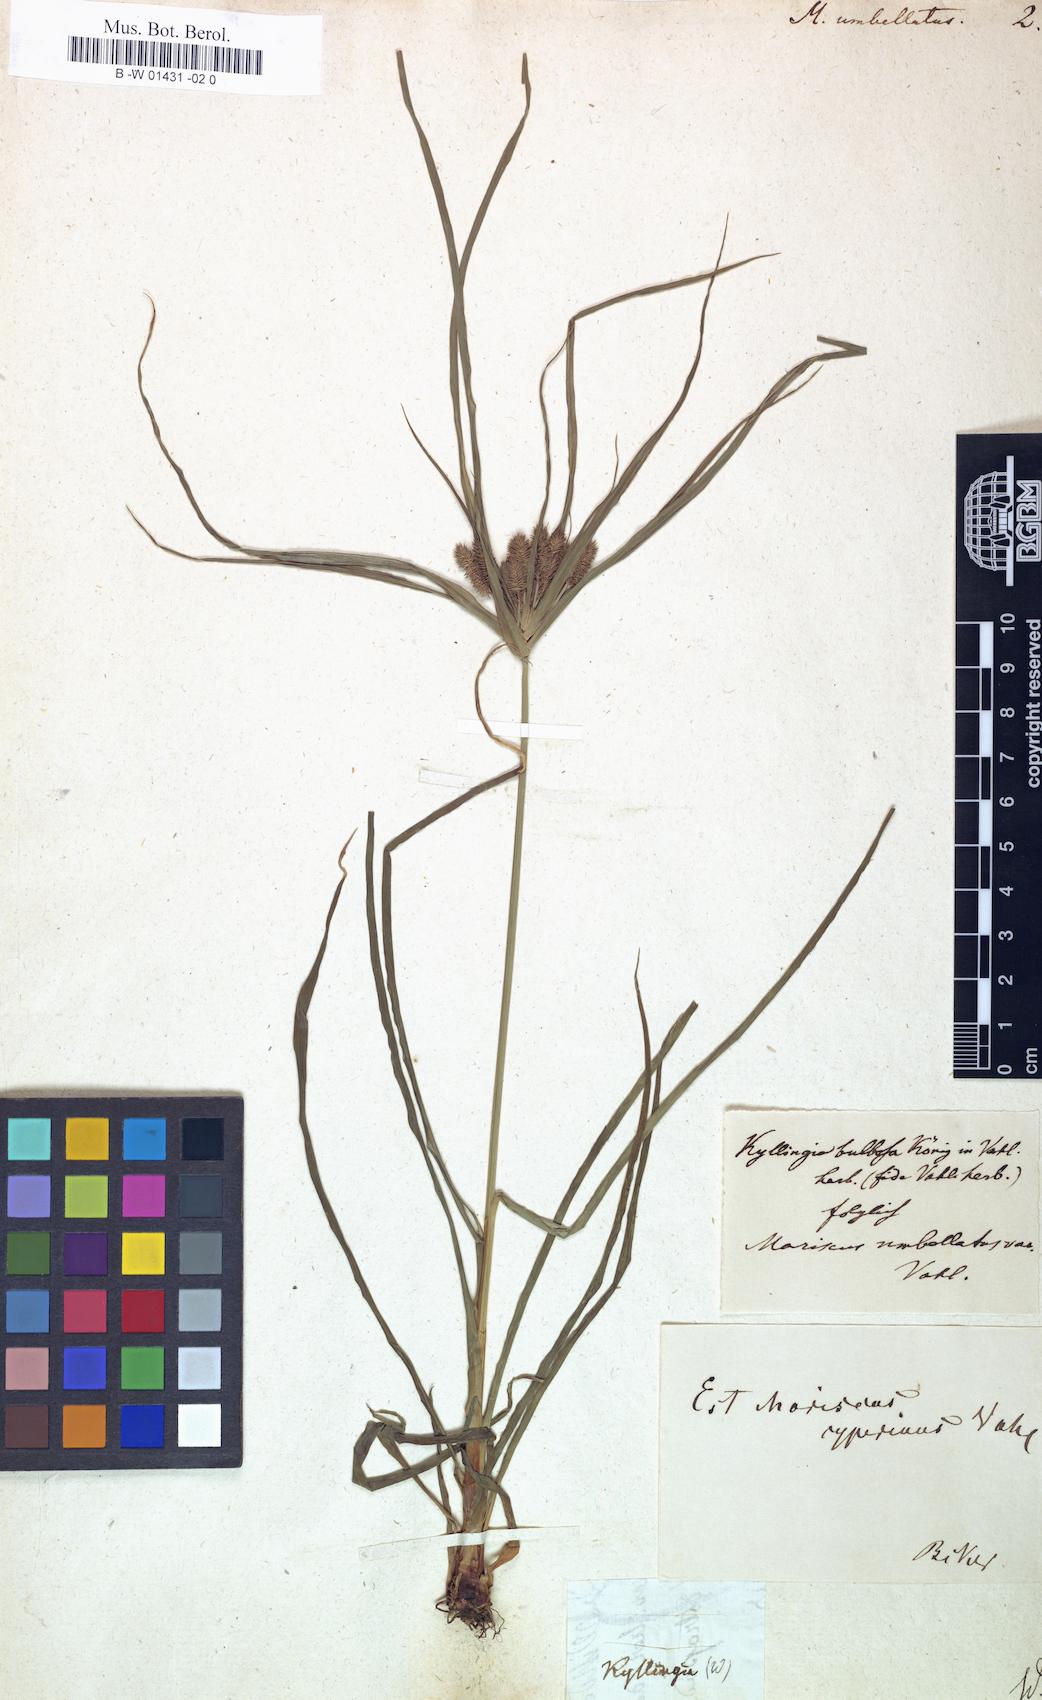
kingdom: Plantae
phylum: Tracheophyta
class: Liliopsida
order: Poales
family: Cyperaceae
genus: Cyperus
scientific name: Cyperus cyperoides
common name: Pacific island flat sedge
